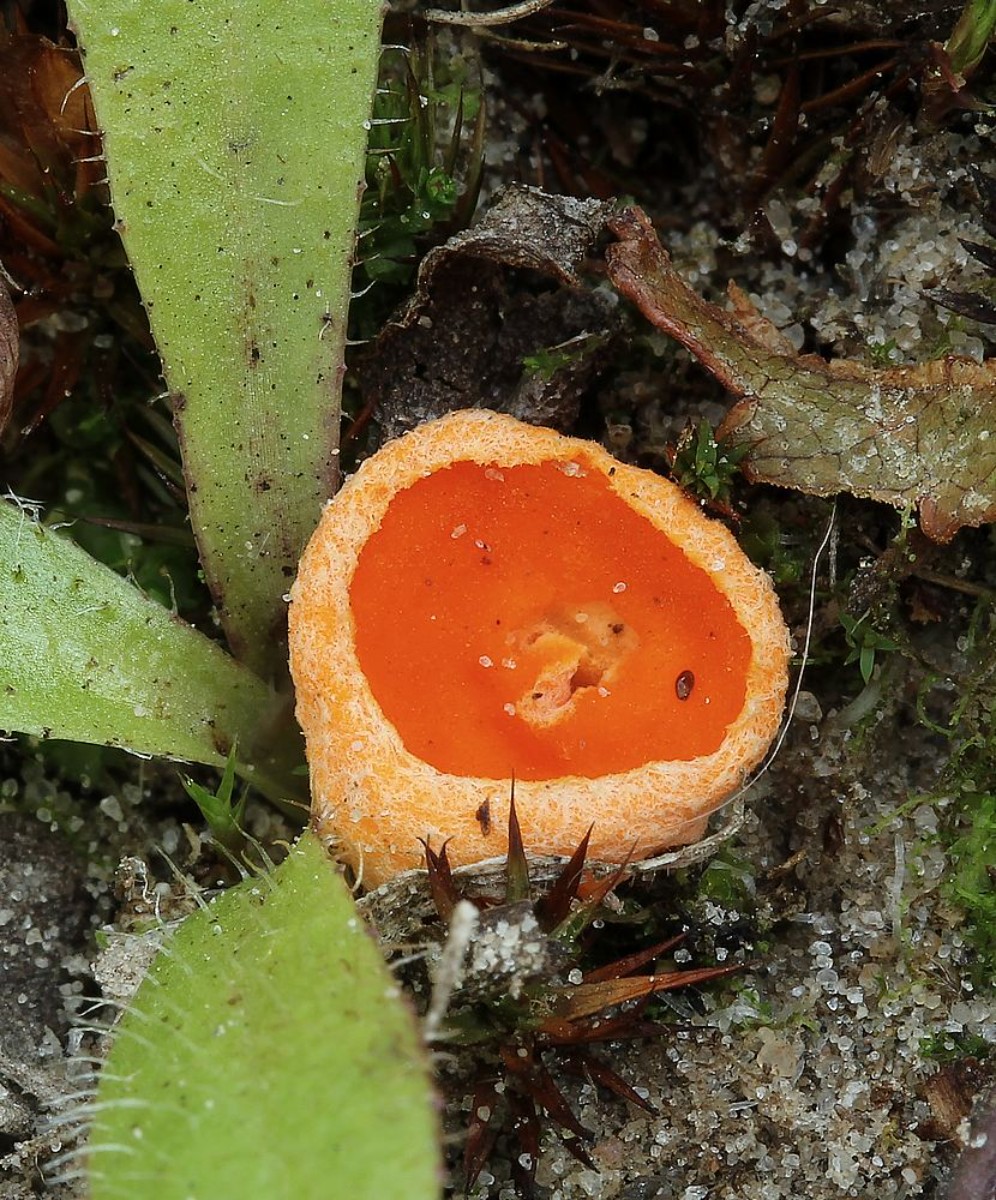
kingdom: Fungi
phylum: Ascomycota
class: Pezizomycetes
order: Pezizales
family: Pyronemataceae
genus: Neottiella
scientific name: Neottiella rutilans
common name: jomfruhår-mosbæger
